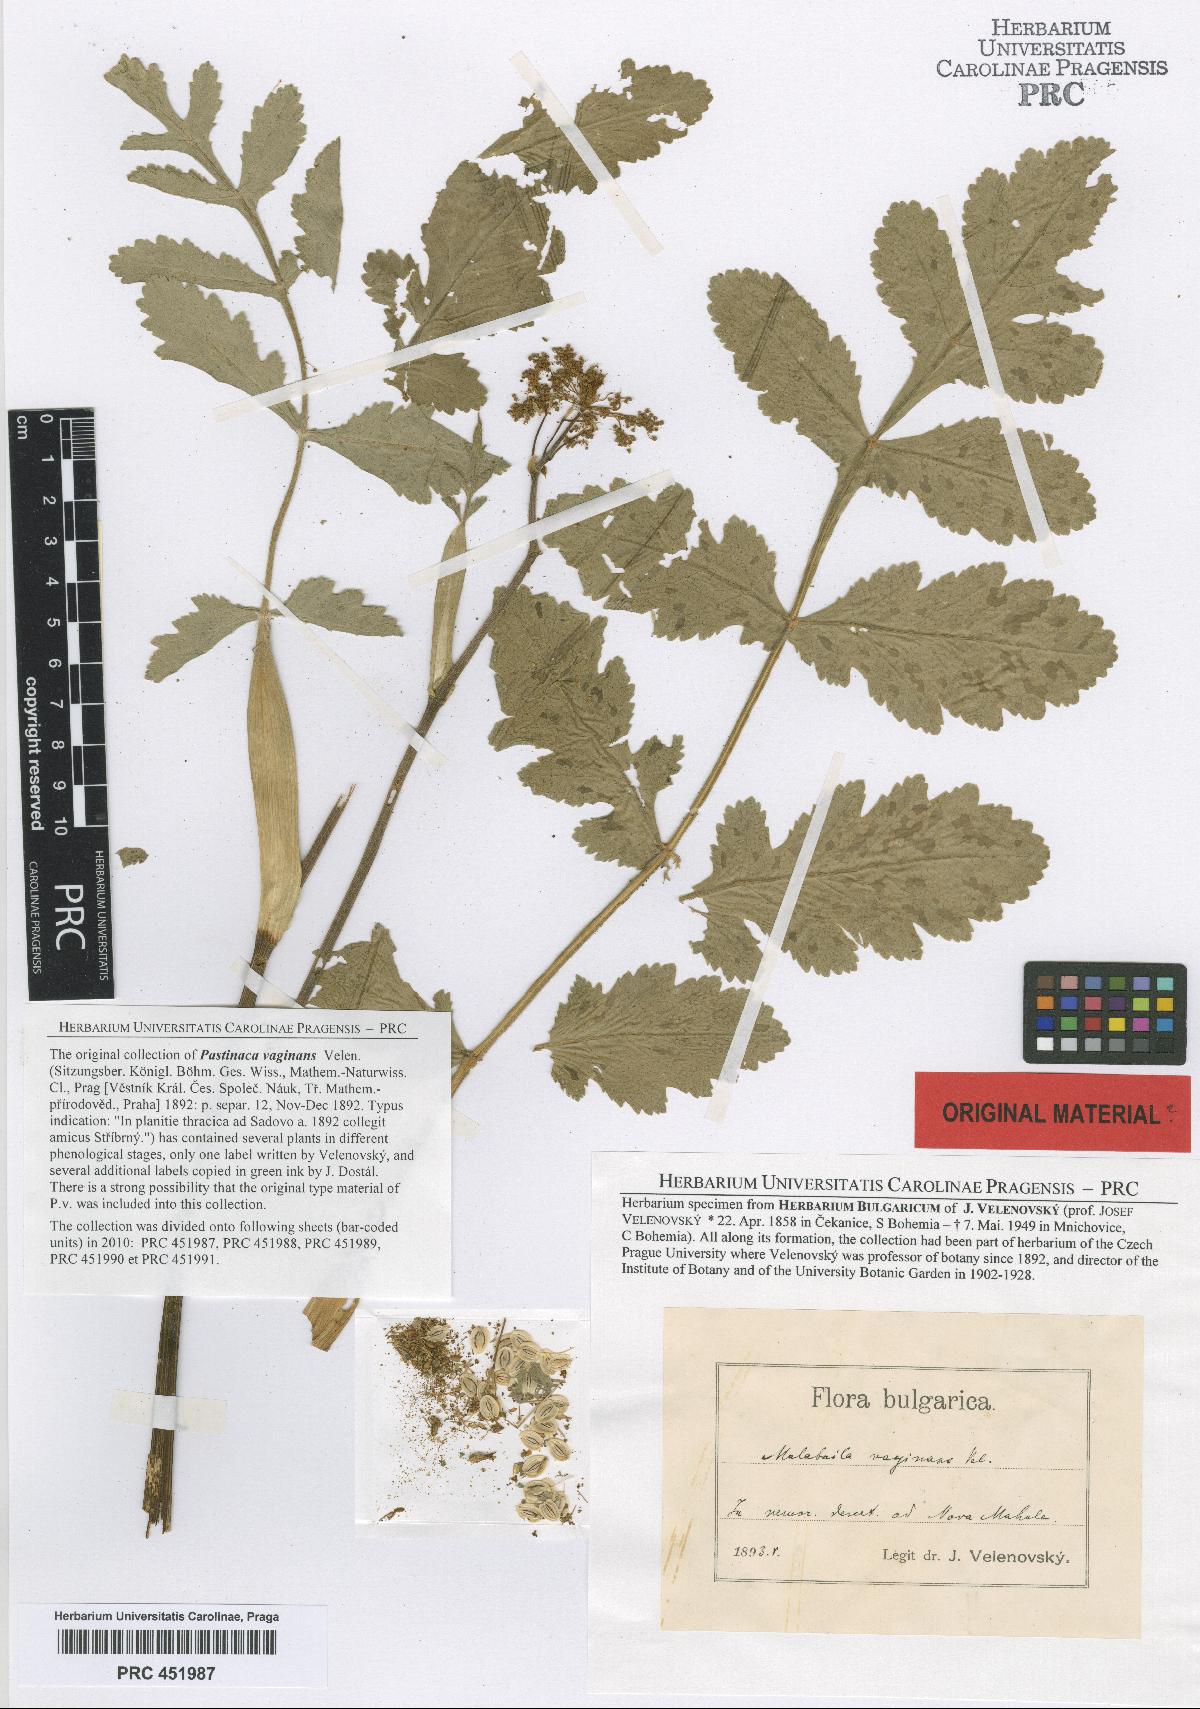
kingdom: Plantae
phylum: Tracheophyta
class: Magnoliopsida
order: Apiales
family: Apiaceae
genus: Pastinaca
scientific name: Pastinaca clausii
